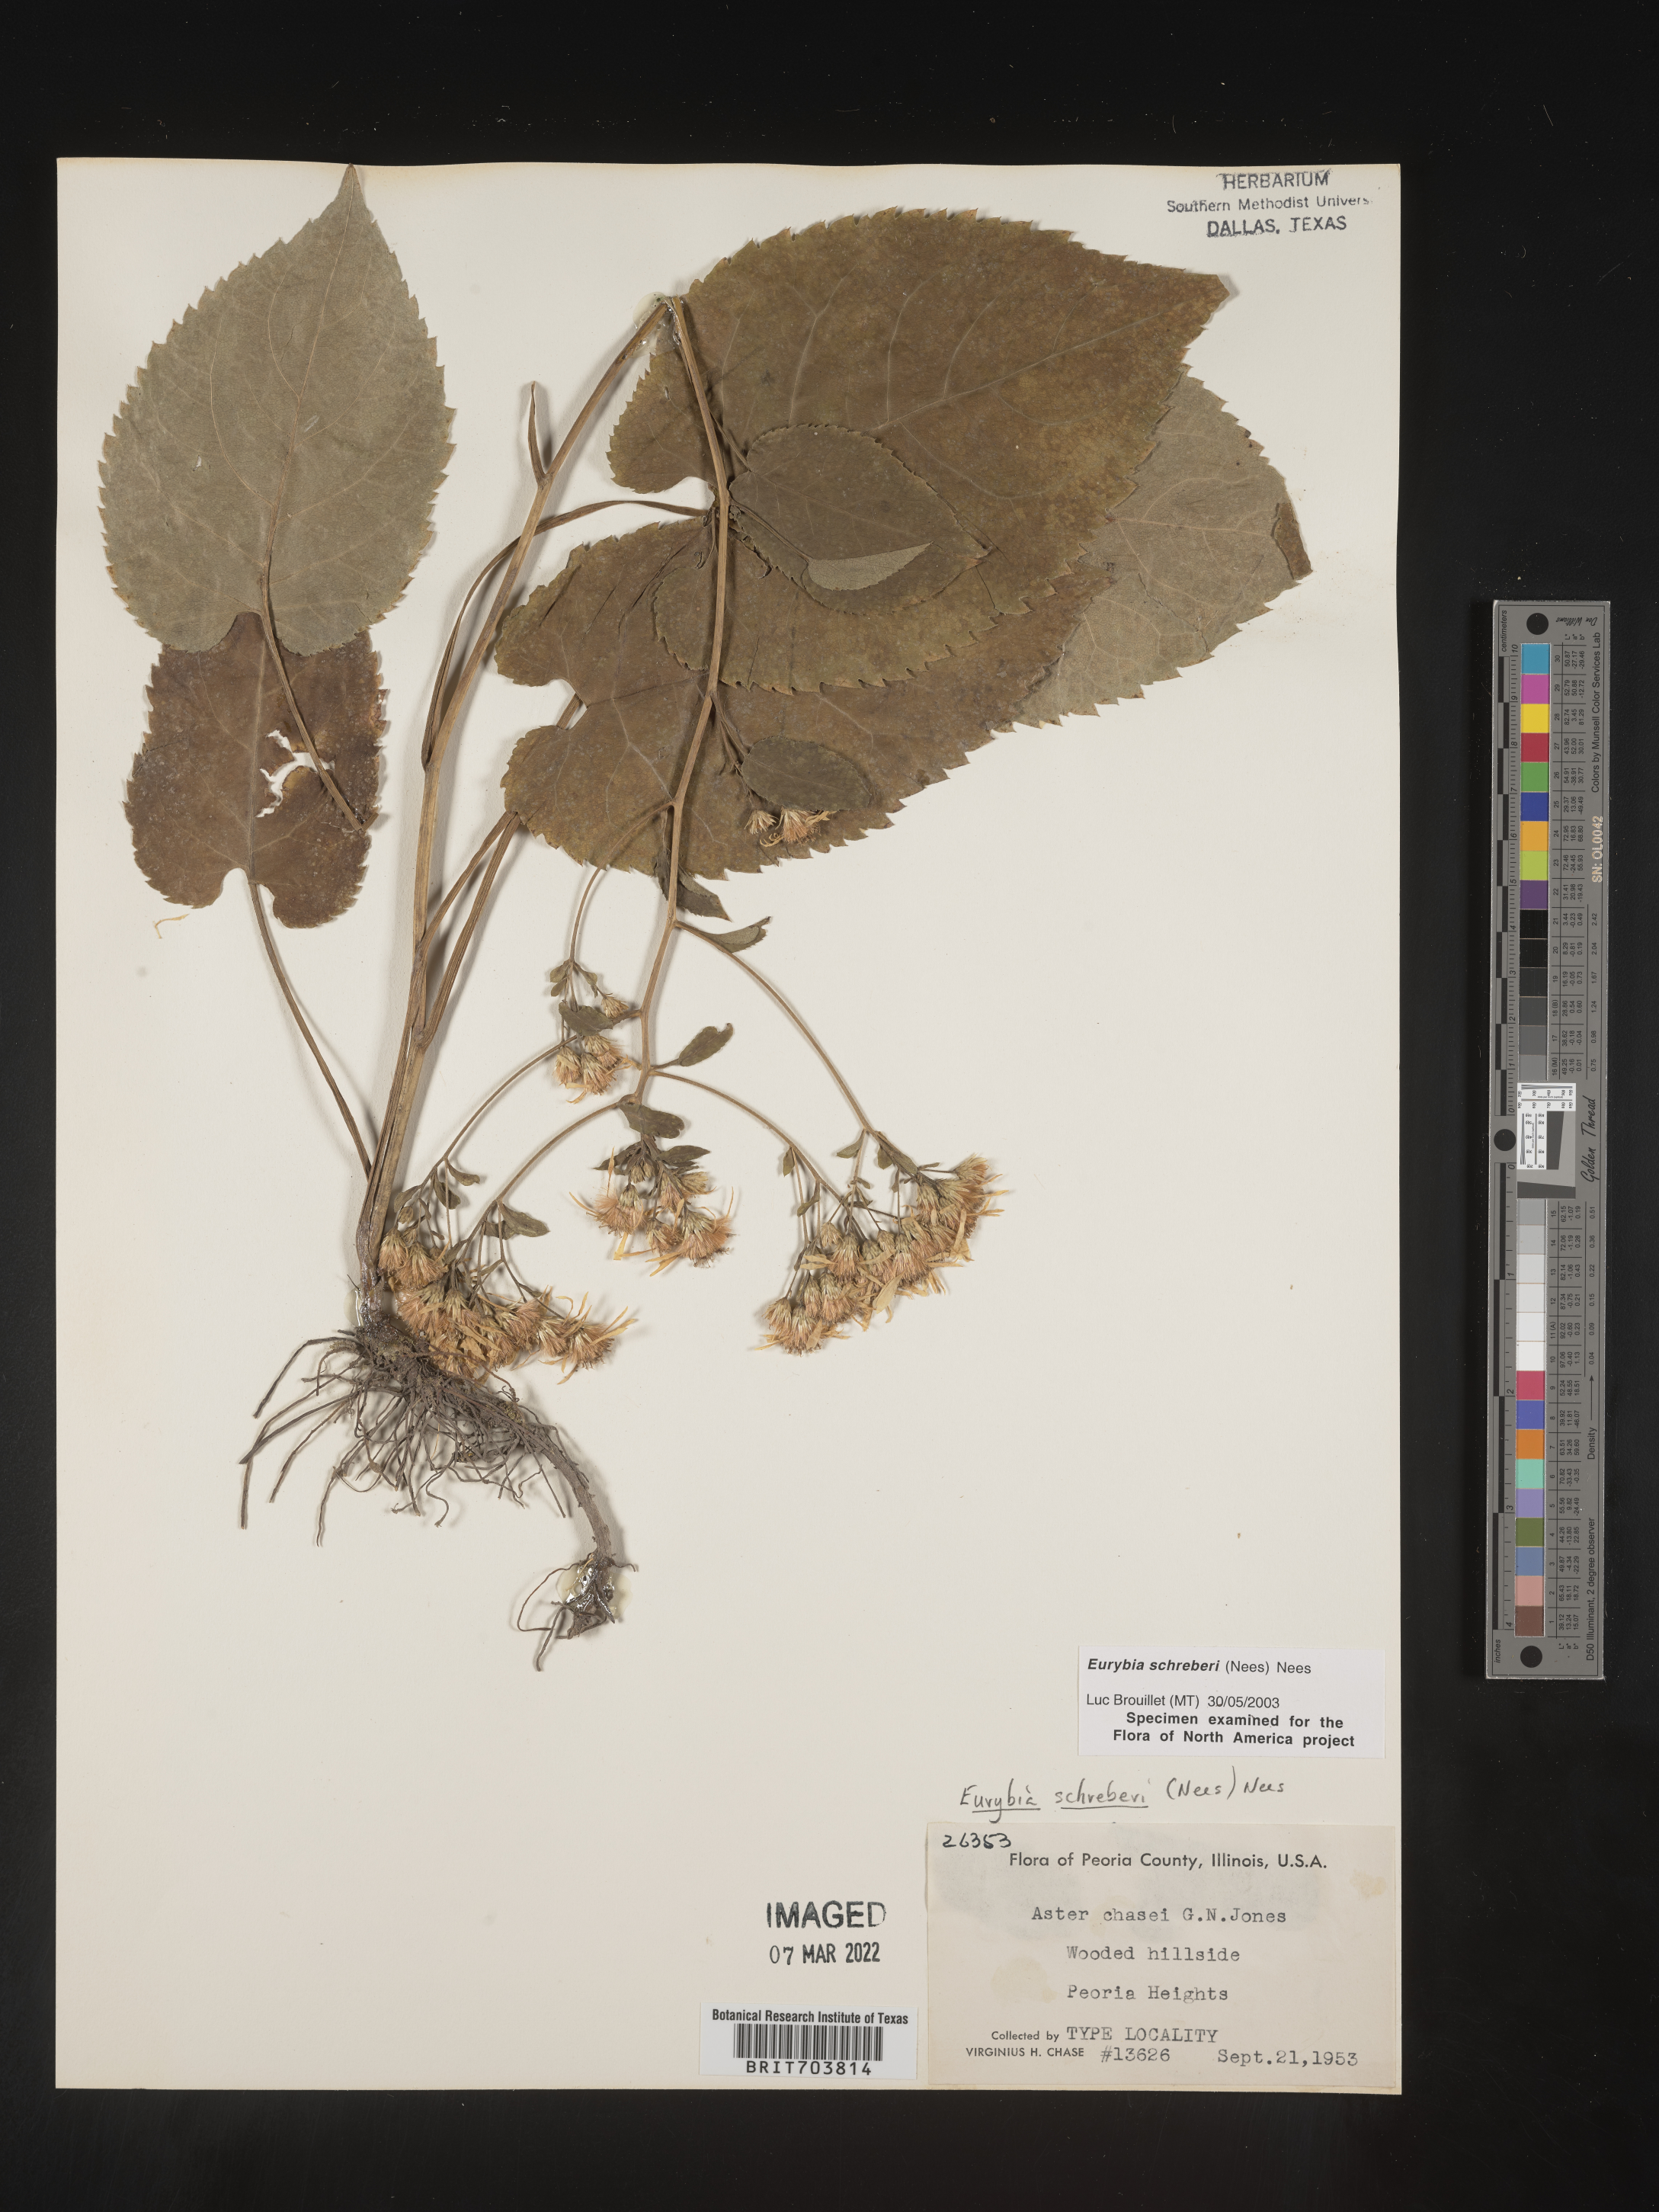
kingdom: Plantae
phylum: Tracheophyta
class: Magnoliopsida
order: Asterales
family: Asteraceae
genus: Eurybia
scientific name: Eurybia schreberi
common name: Schreber's aster
